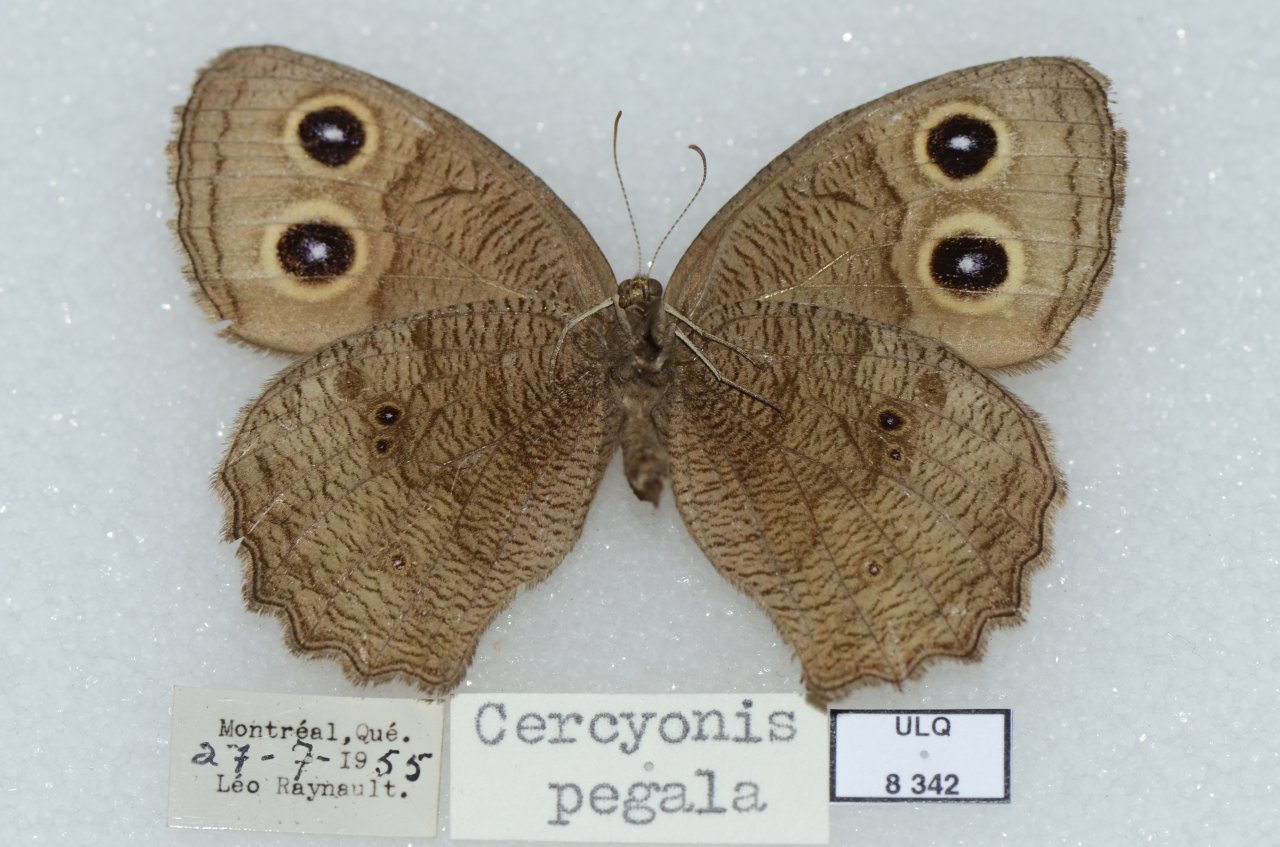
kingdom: Animalia
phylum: Arthropoda
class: Insecta
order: Lepidoptera
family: Nymphalidae
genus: Cercyonis
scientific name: Cercyonis pegala
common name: Common Wood-Nymph
